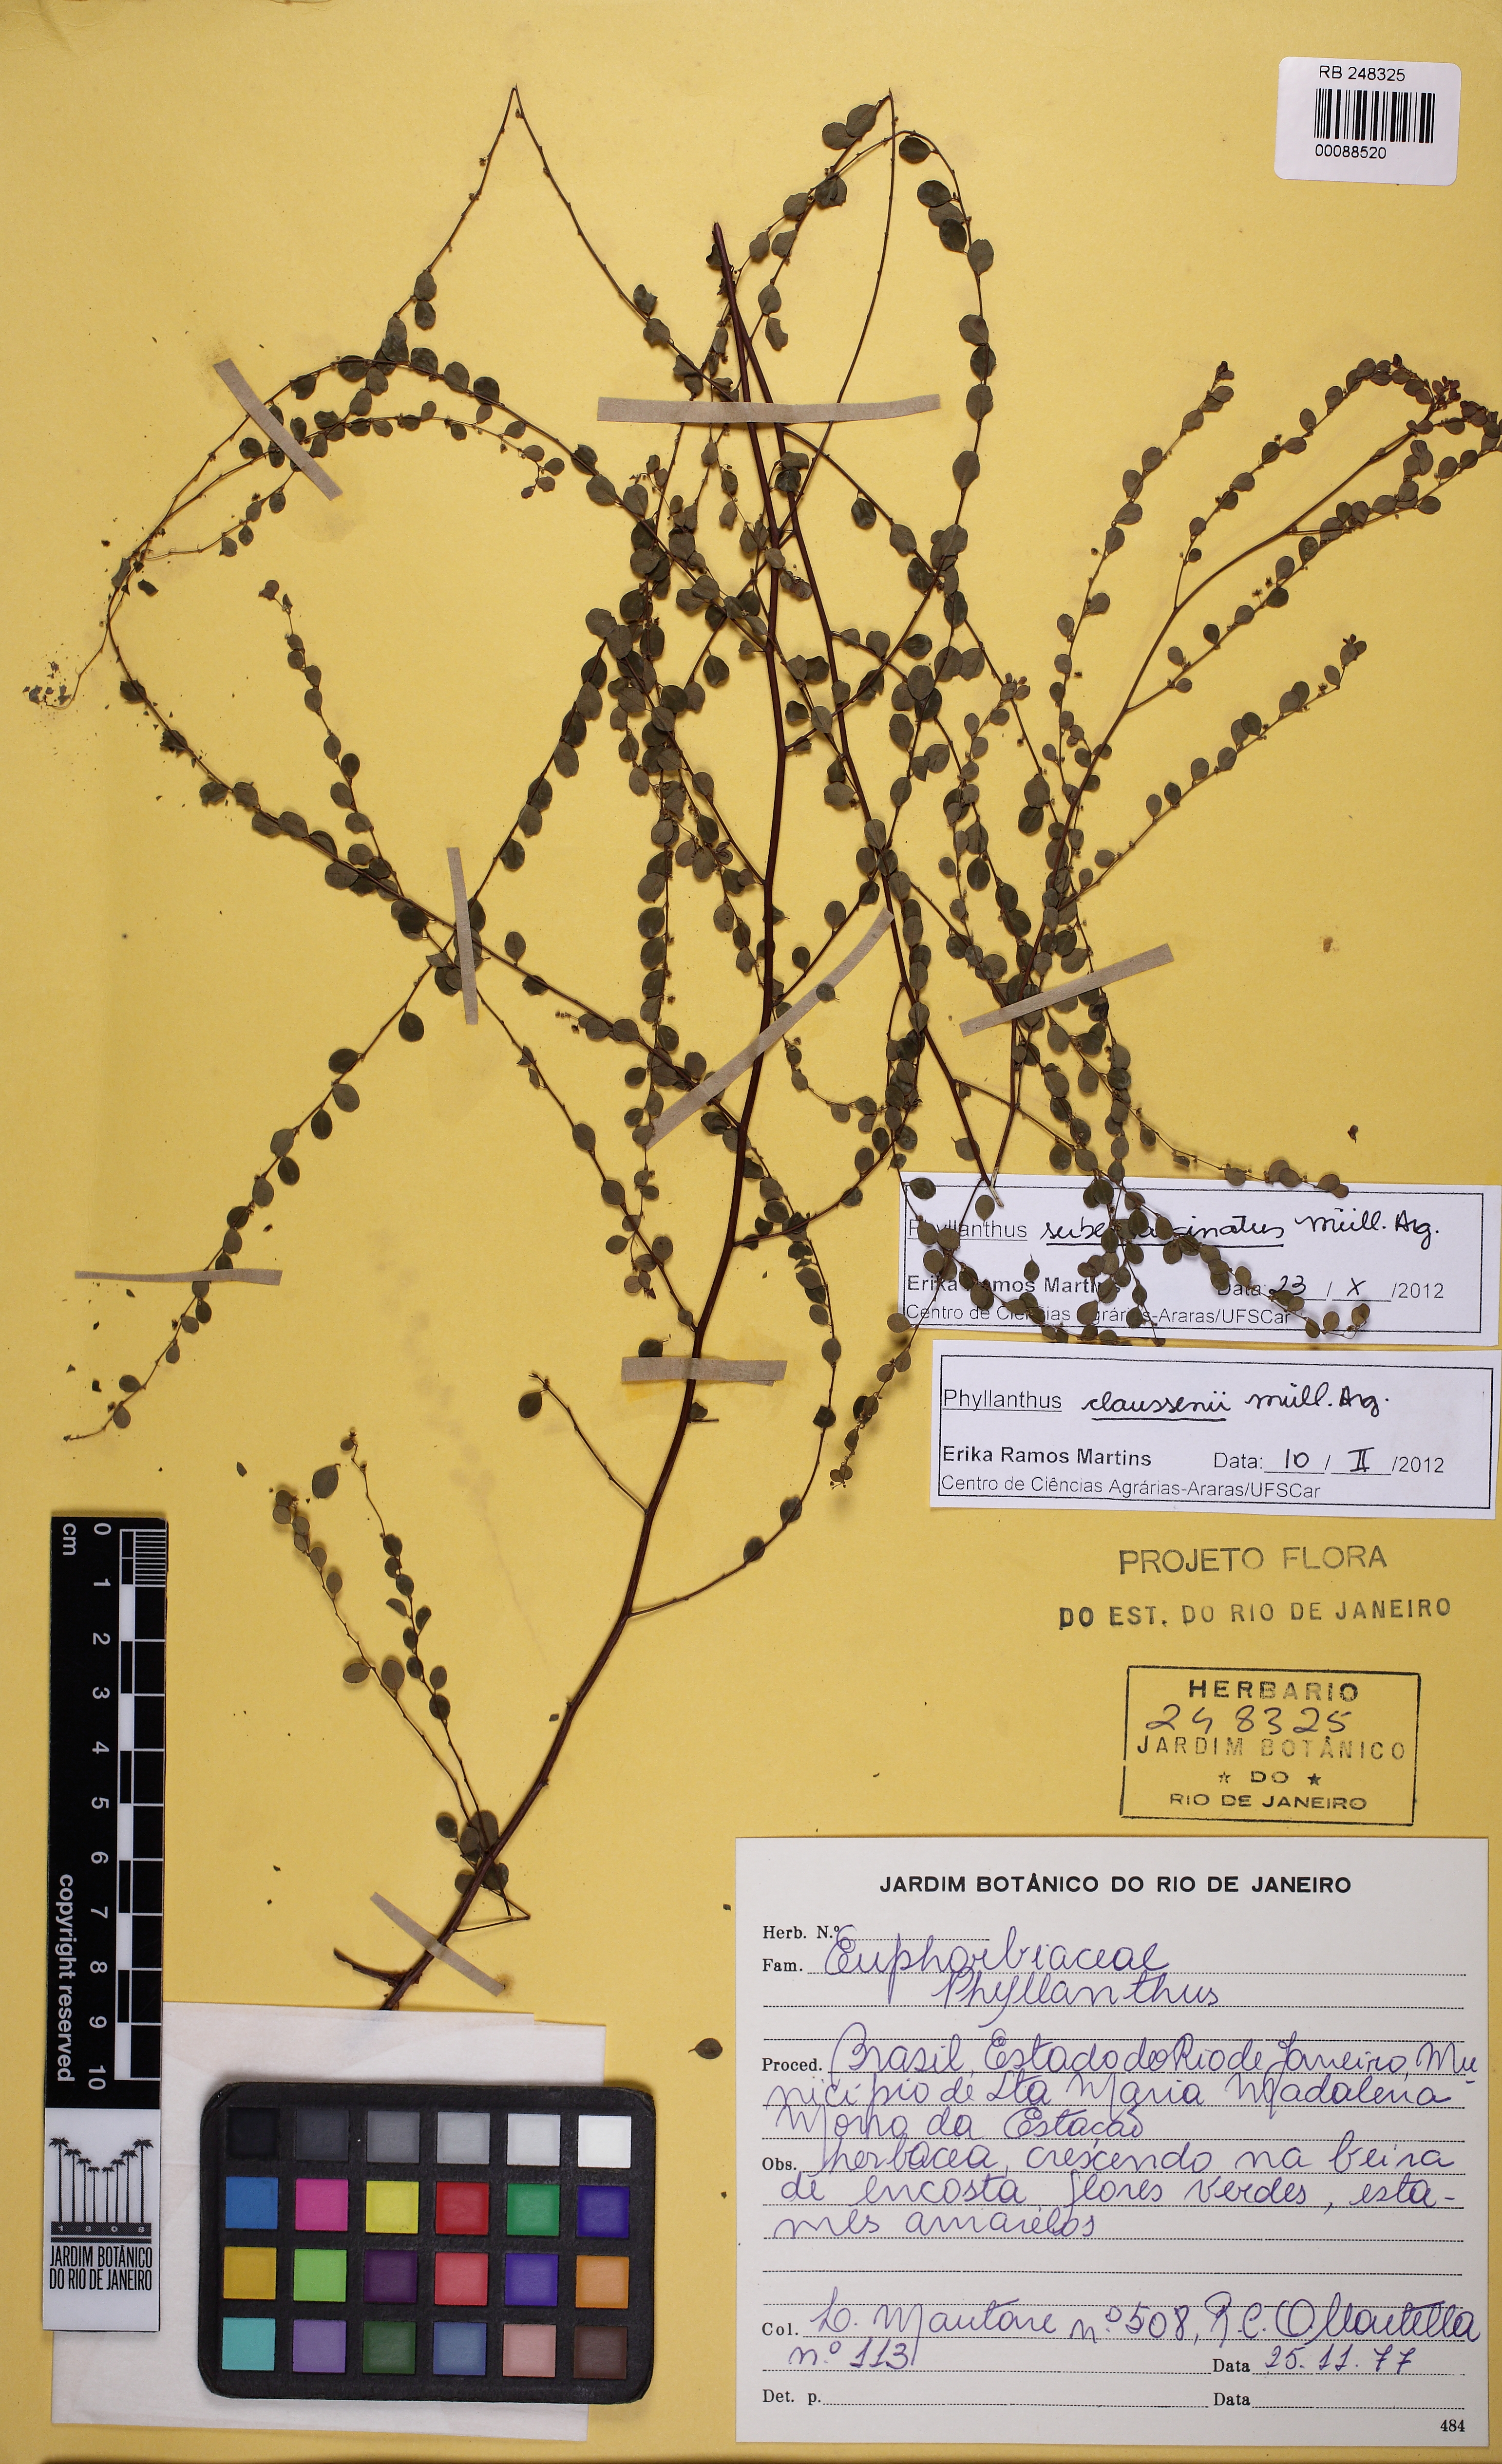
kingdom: Plantae
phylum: Tracheophyta
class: Magnoliopsida
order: Malpighiales
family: Phyllanthaceae
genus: Phyllanthus
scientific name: Phyllanthus claussenii
